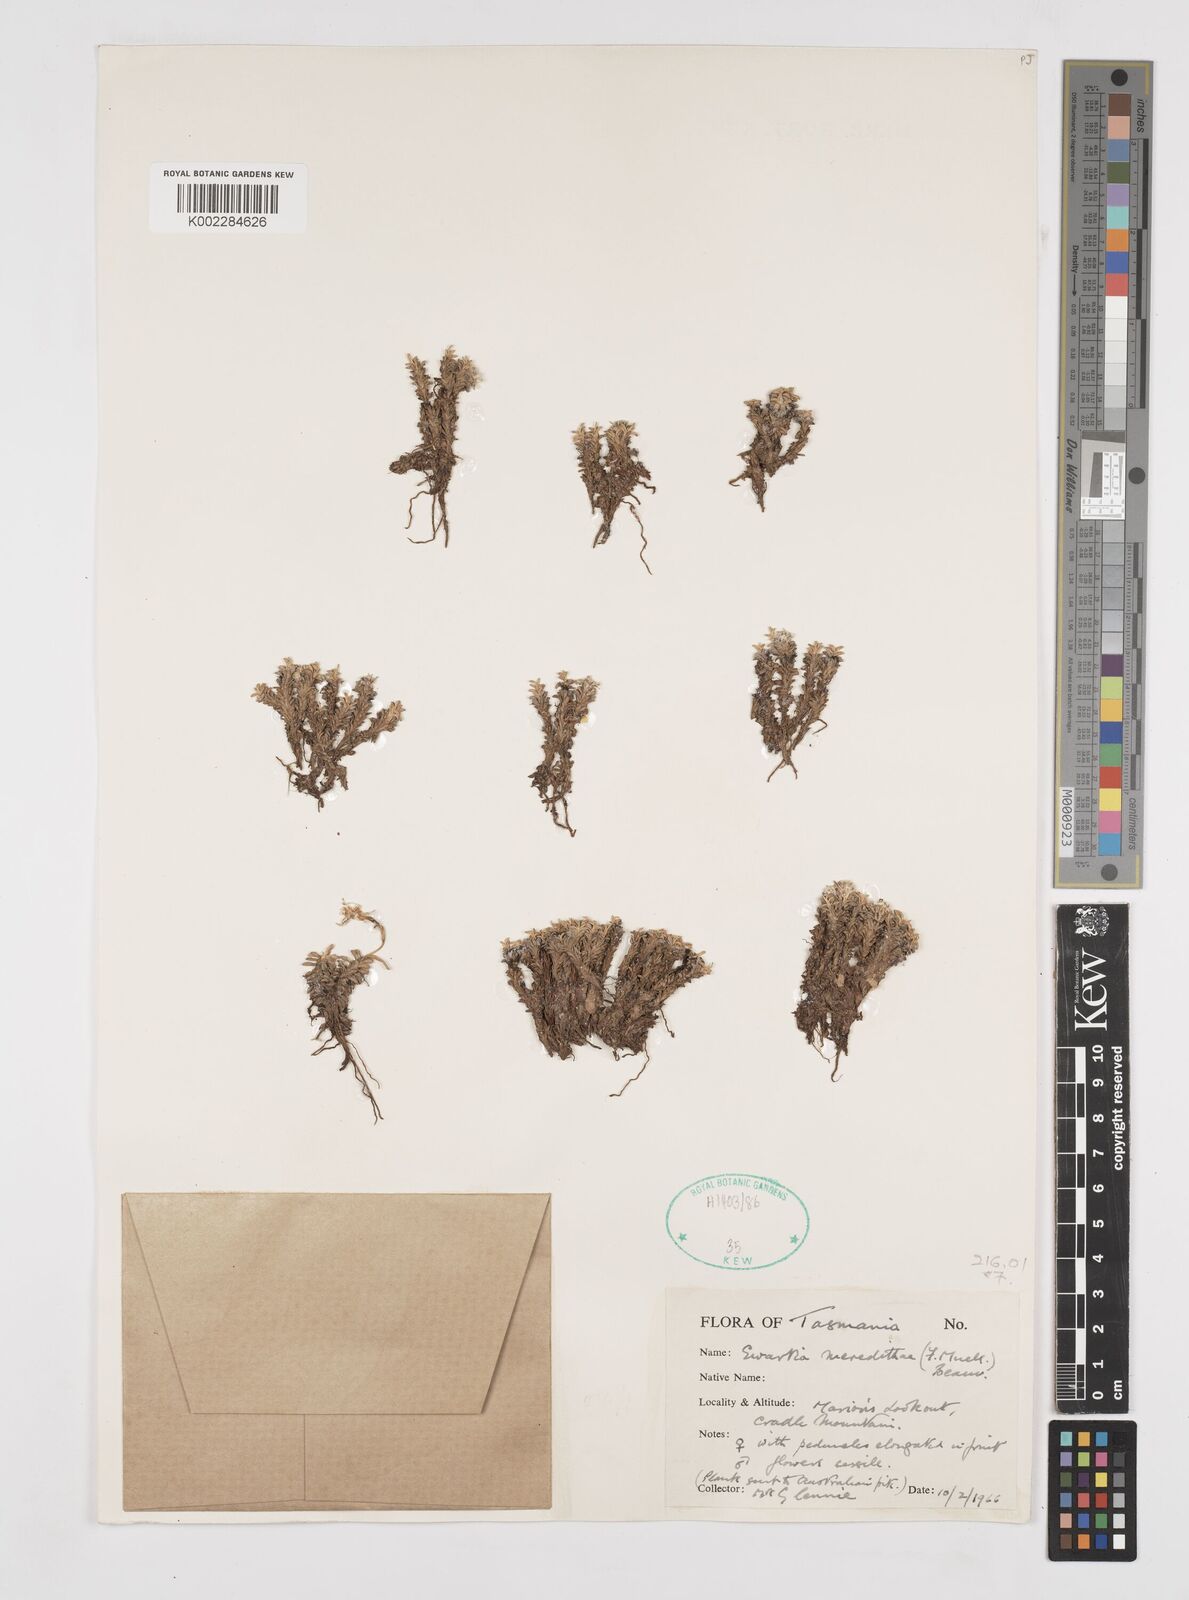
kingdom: Plantae
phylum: Tracheophyta
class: Magnoliopsida
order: Asterales
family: Asteraceae
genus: Ewartia
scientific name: Ewartia meredithae
